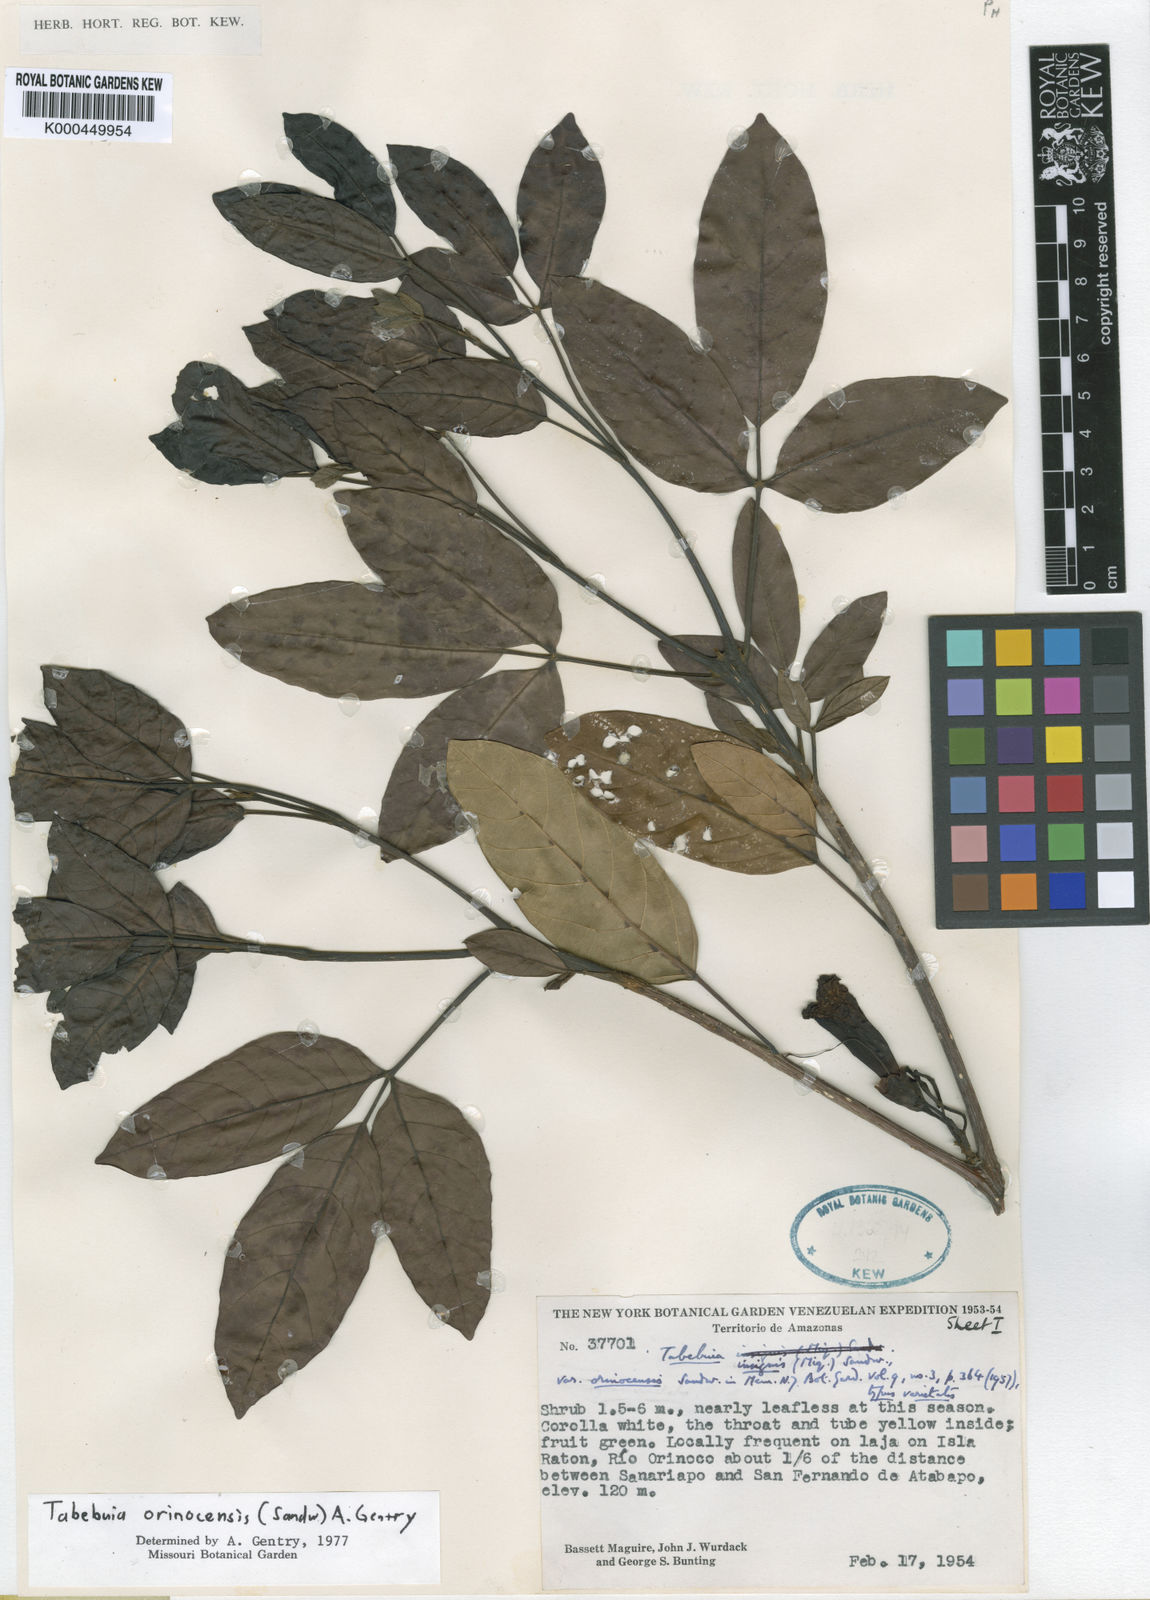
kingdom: Plantae
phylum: Tracheophyta
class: Magnoliopsida
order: Lamiales
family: Bignoniaceae
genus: Tabebuia
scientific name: Tabebuia orinocensis
